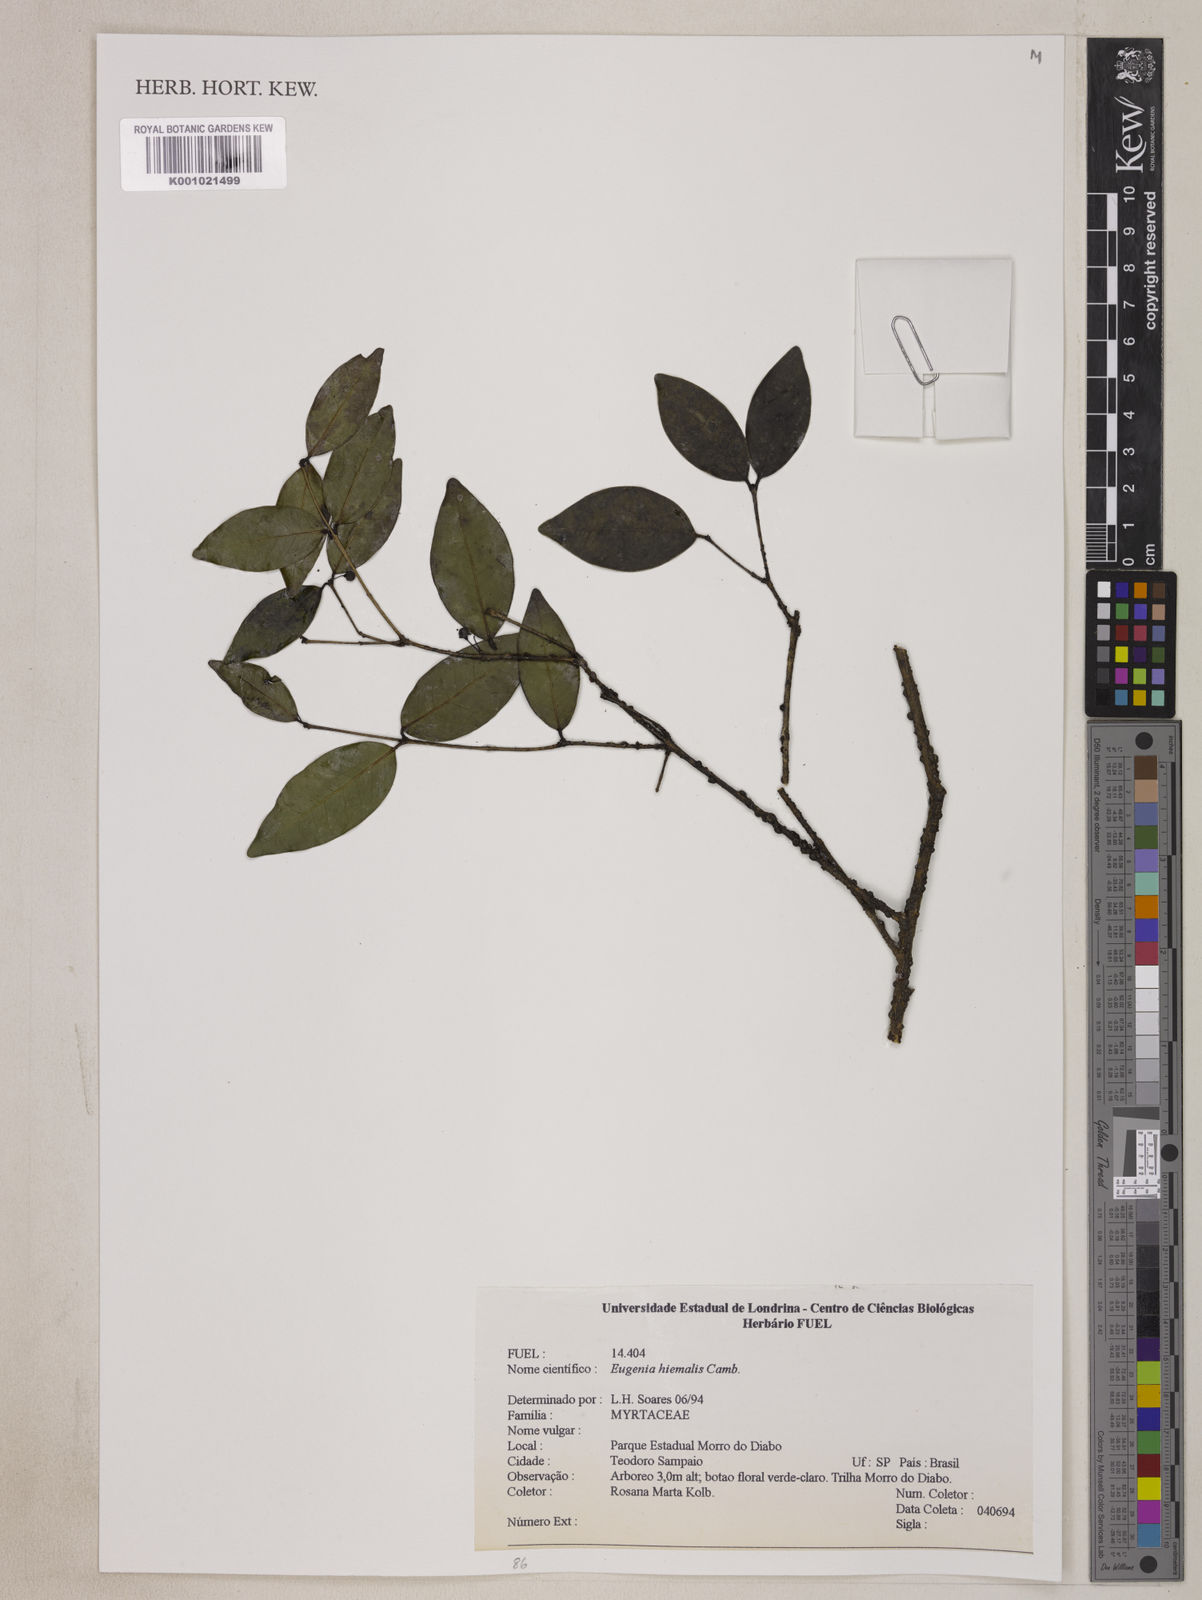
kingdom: Plantae
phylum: Tracheophyta
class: Magnoliopsida
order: Myrtales
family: Myrtaceae
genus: Eugenia
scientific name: Eugenia hiemalis
